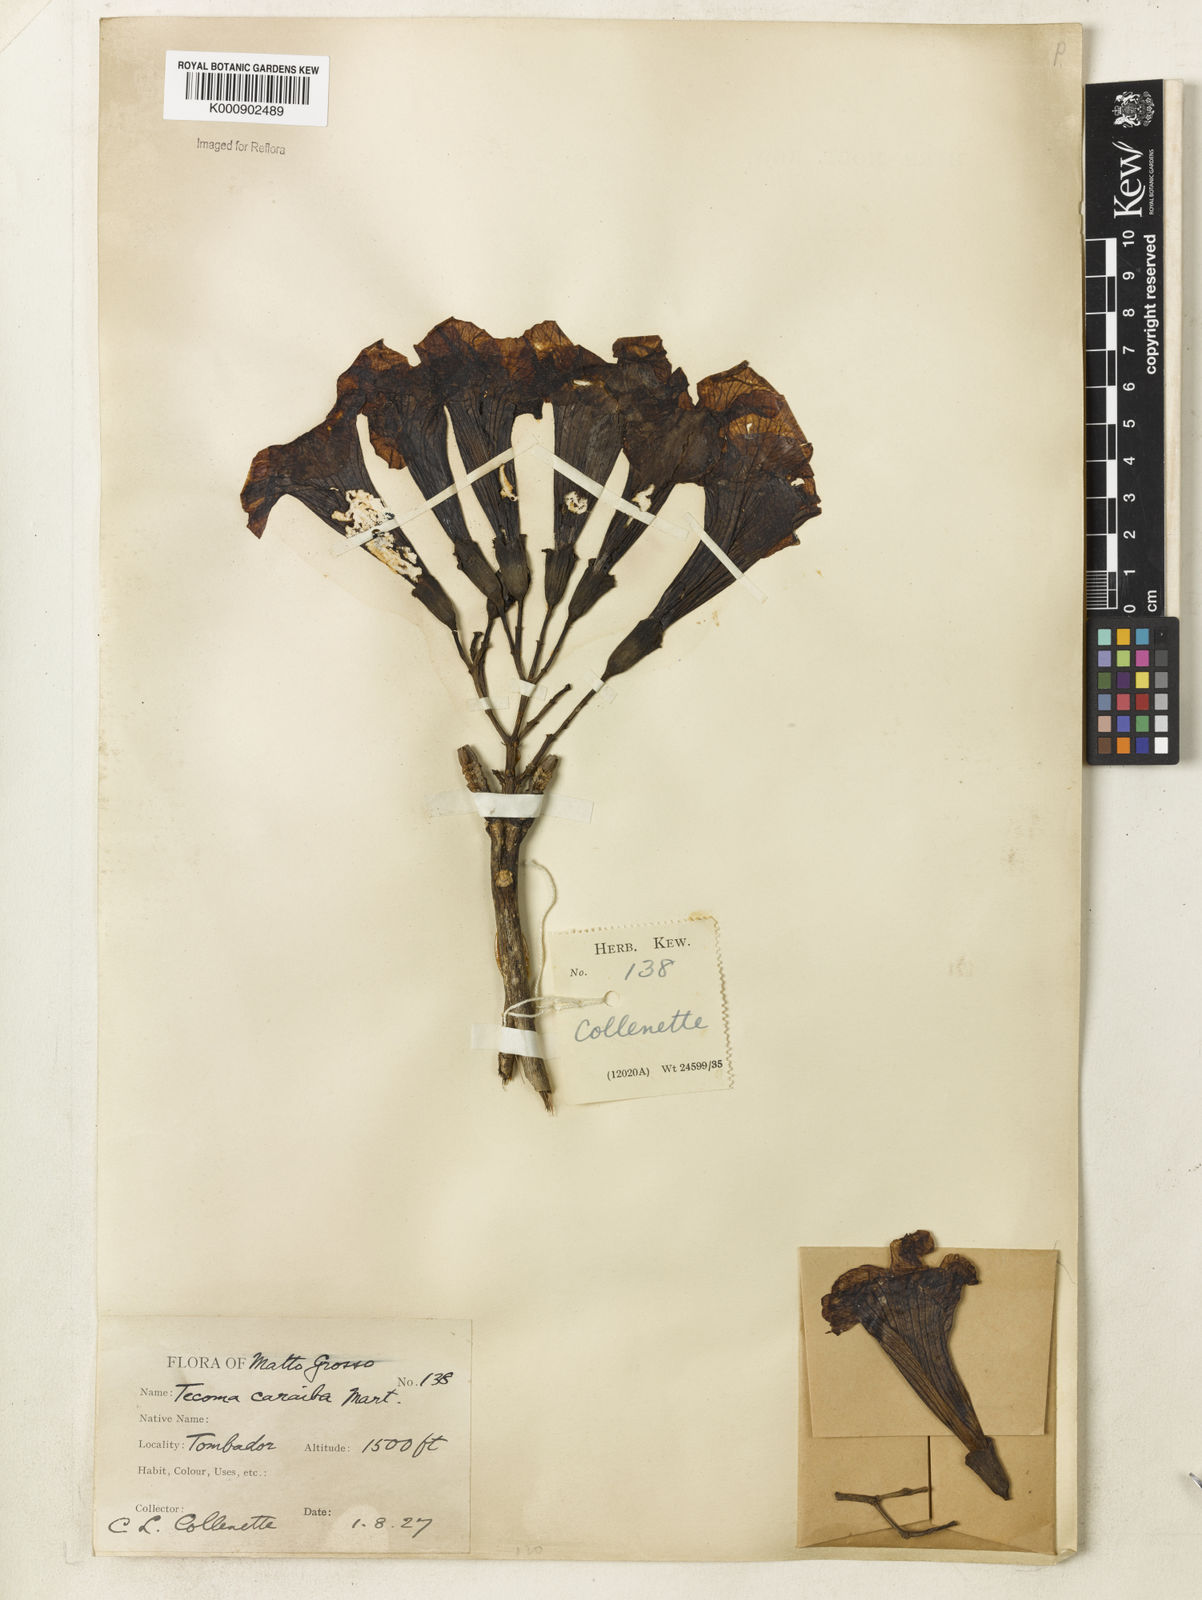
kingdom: Plantae
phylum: Tracheophyta
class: Magnoliopsida
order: Lamiales
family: Bignoniaceae
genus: Tabebuia
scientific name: Tabebuia aurea
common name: Caribbean trumpet-tree
